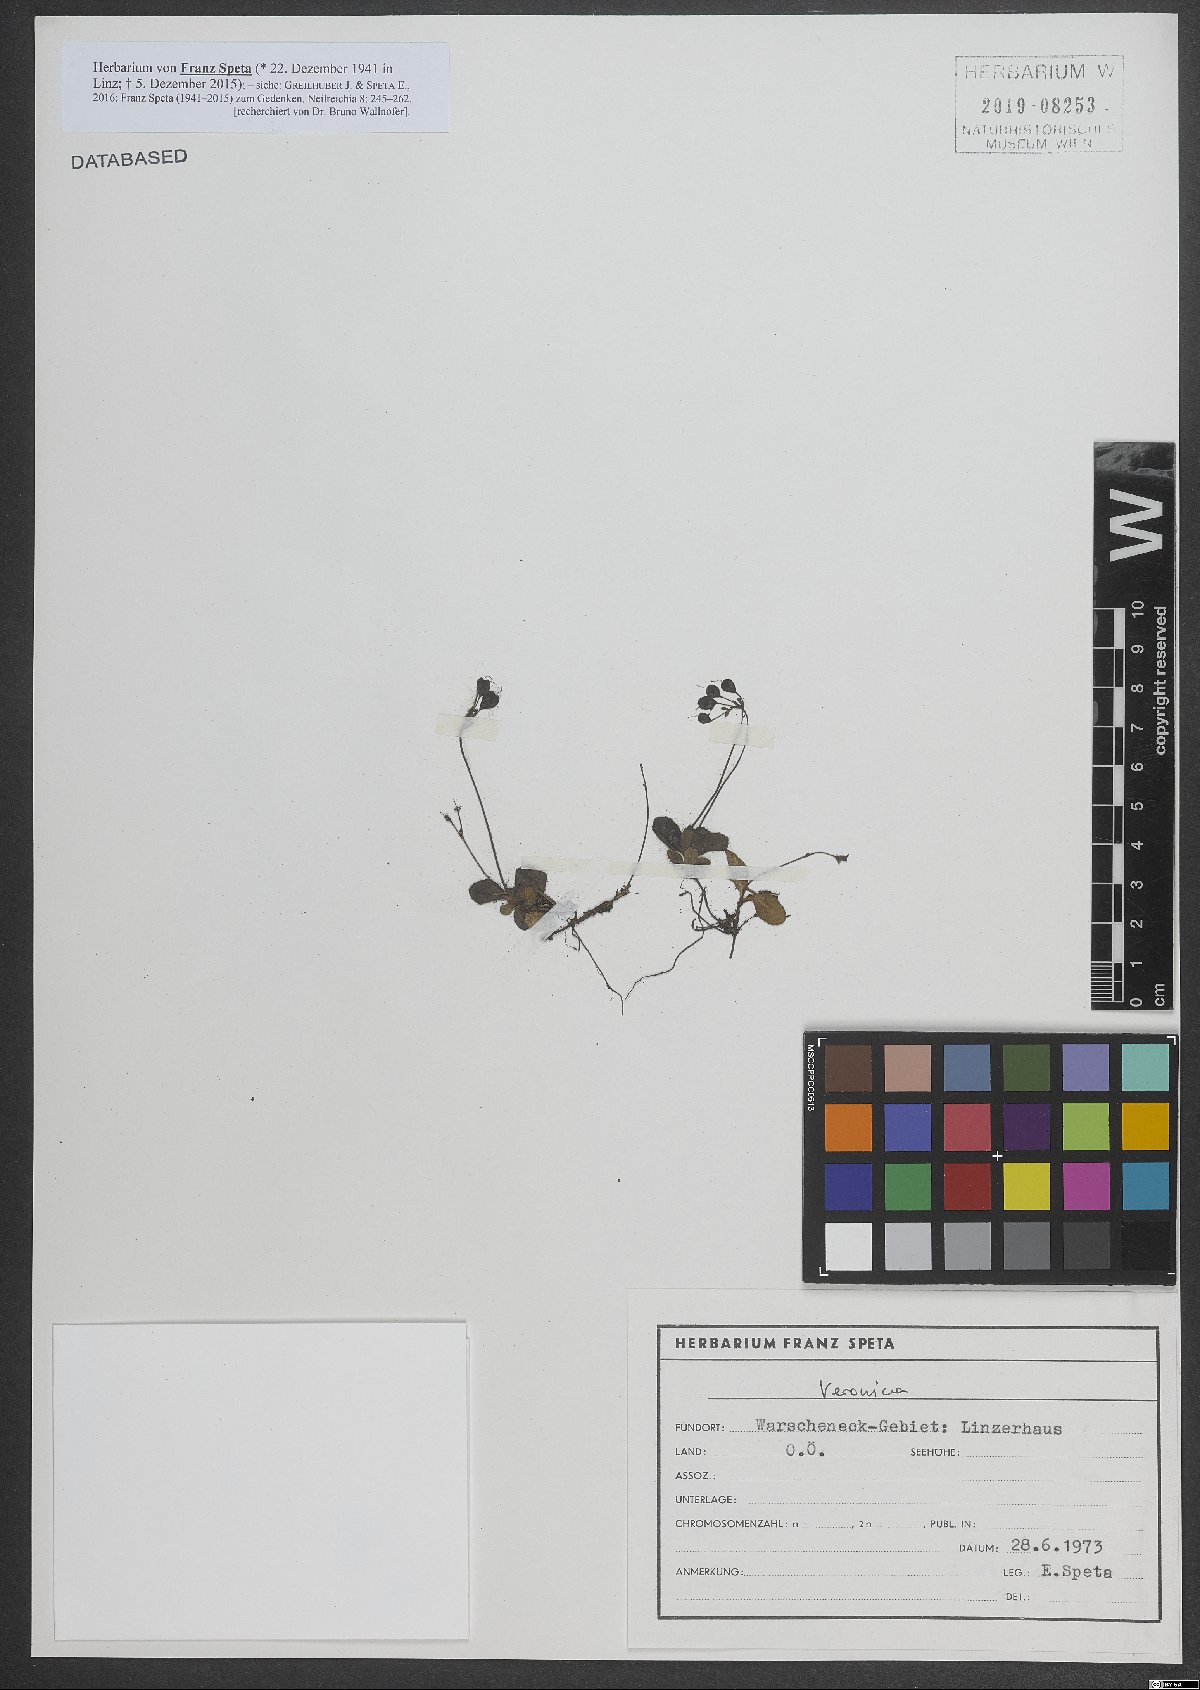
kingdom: Plantae
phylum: Tracheophyta
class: Magnoliopsida
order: Lamiales
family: Plantaginaceae
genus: Veronica
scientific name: Veronica
